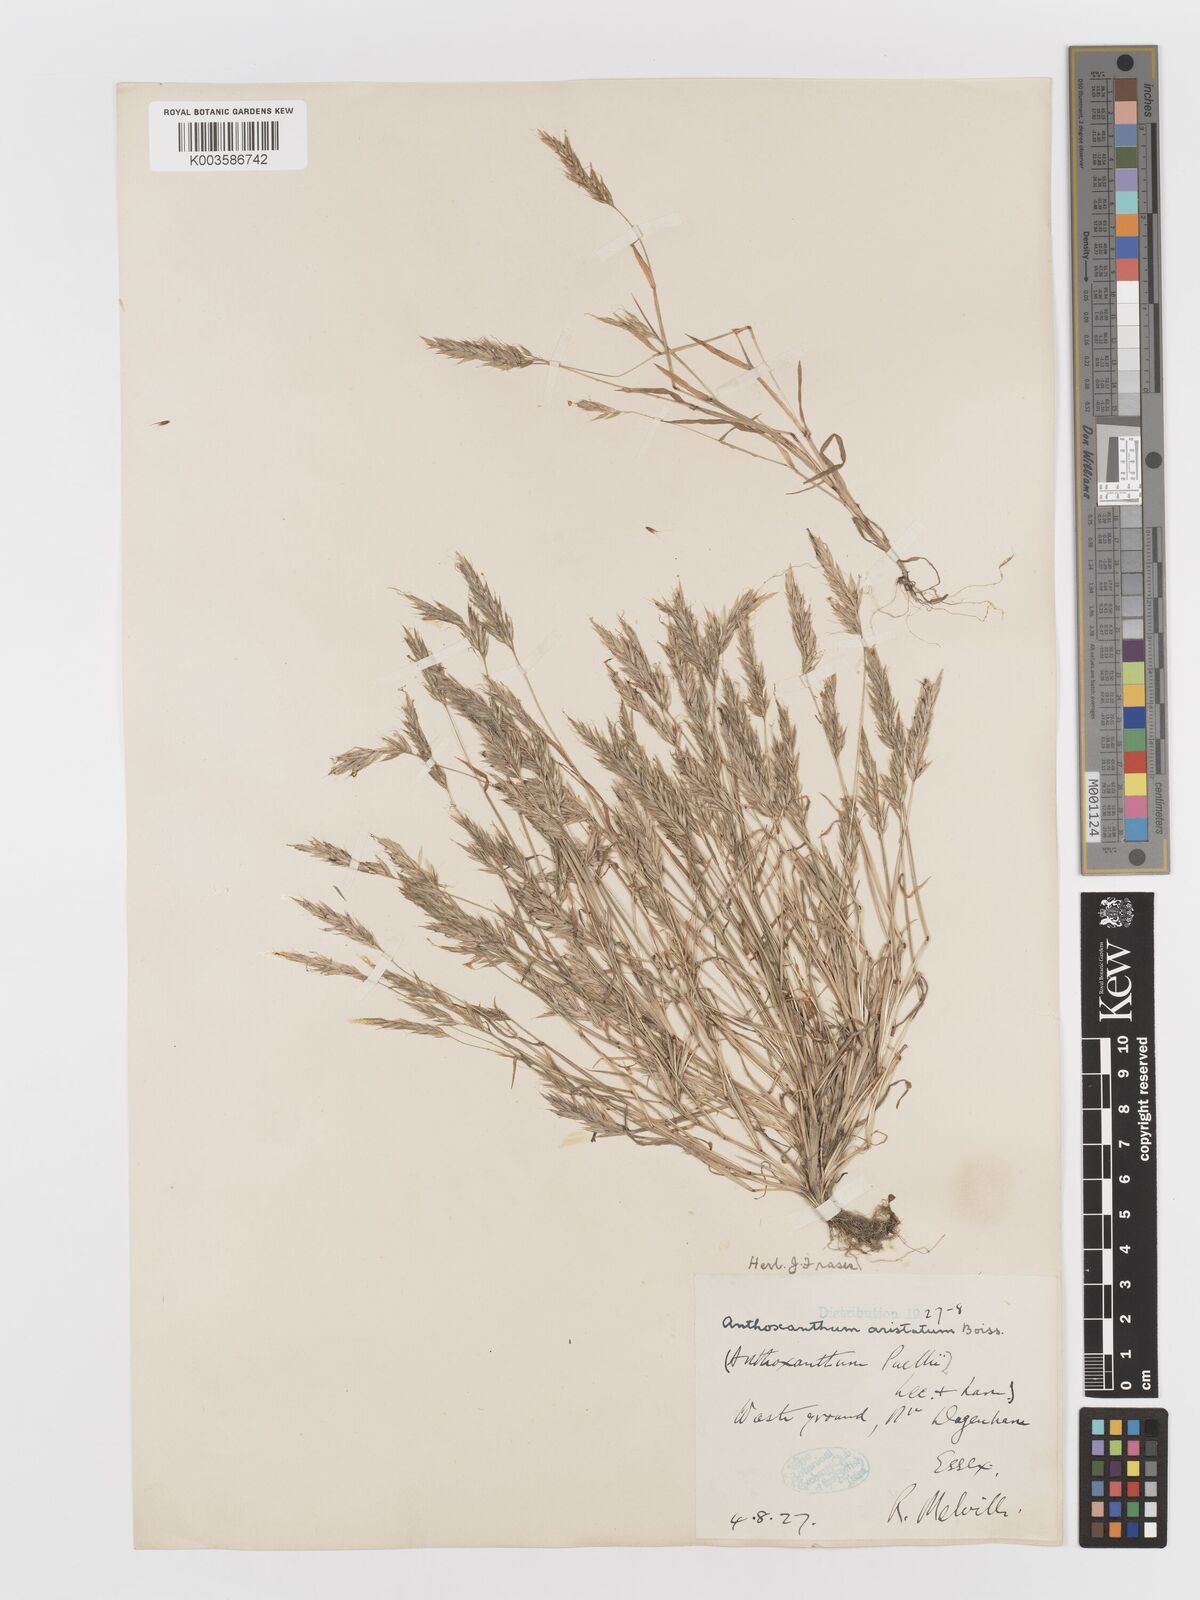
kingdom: Plantae
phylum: Tracheophyta
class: Liliopsida
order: Poales
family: Poaceae
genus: Anthoxanthum
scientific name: Anthoxanthum aristatum
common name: Annual vernal-grass
